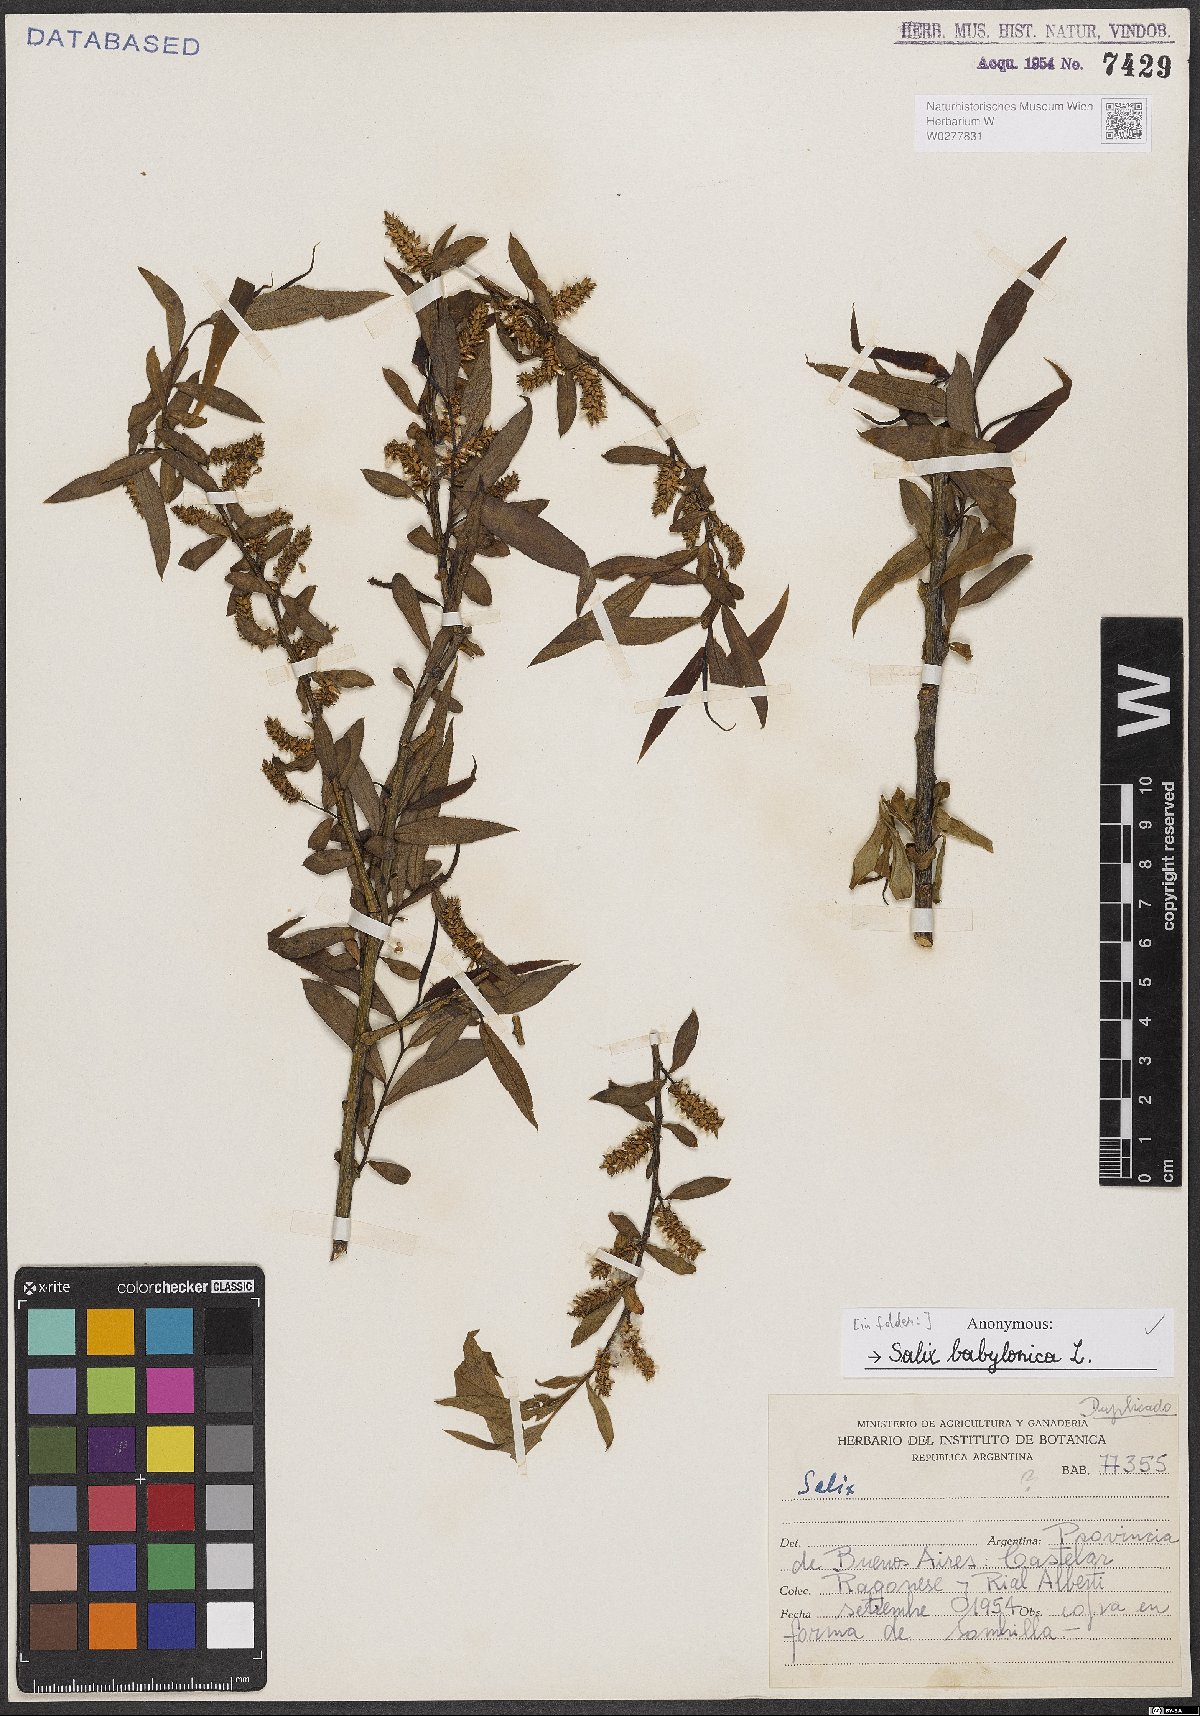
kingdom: Plantae
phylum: Tracheophyta
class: Magnoliopsida
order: Malpighiales
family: Salicaceae
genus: Salix
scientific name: Salix babylonica
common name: Weeping willow
